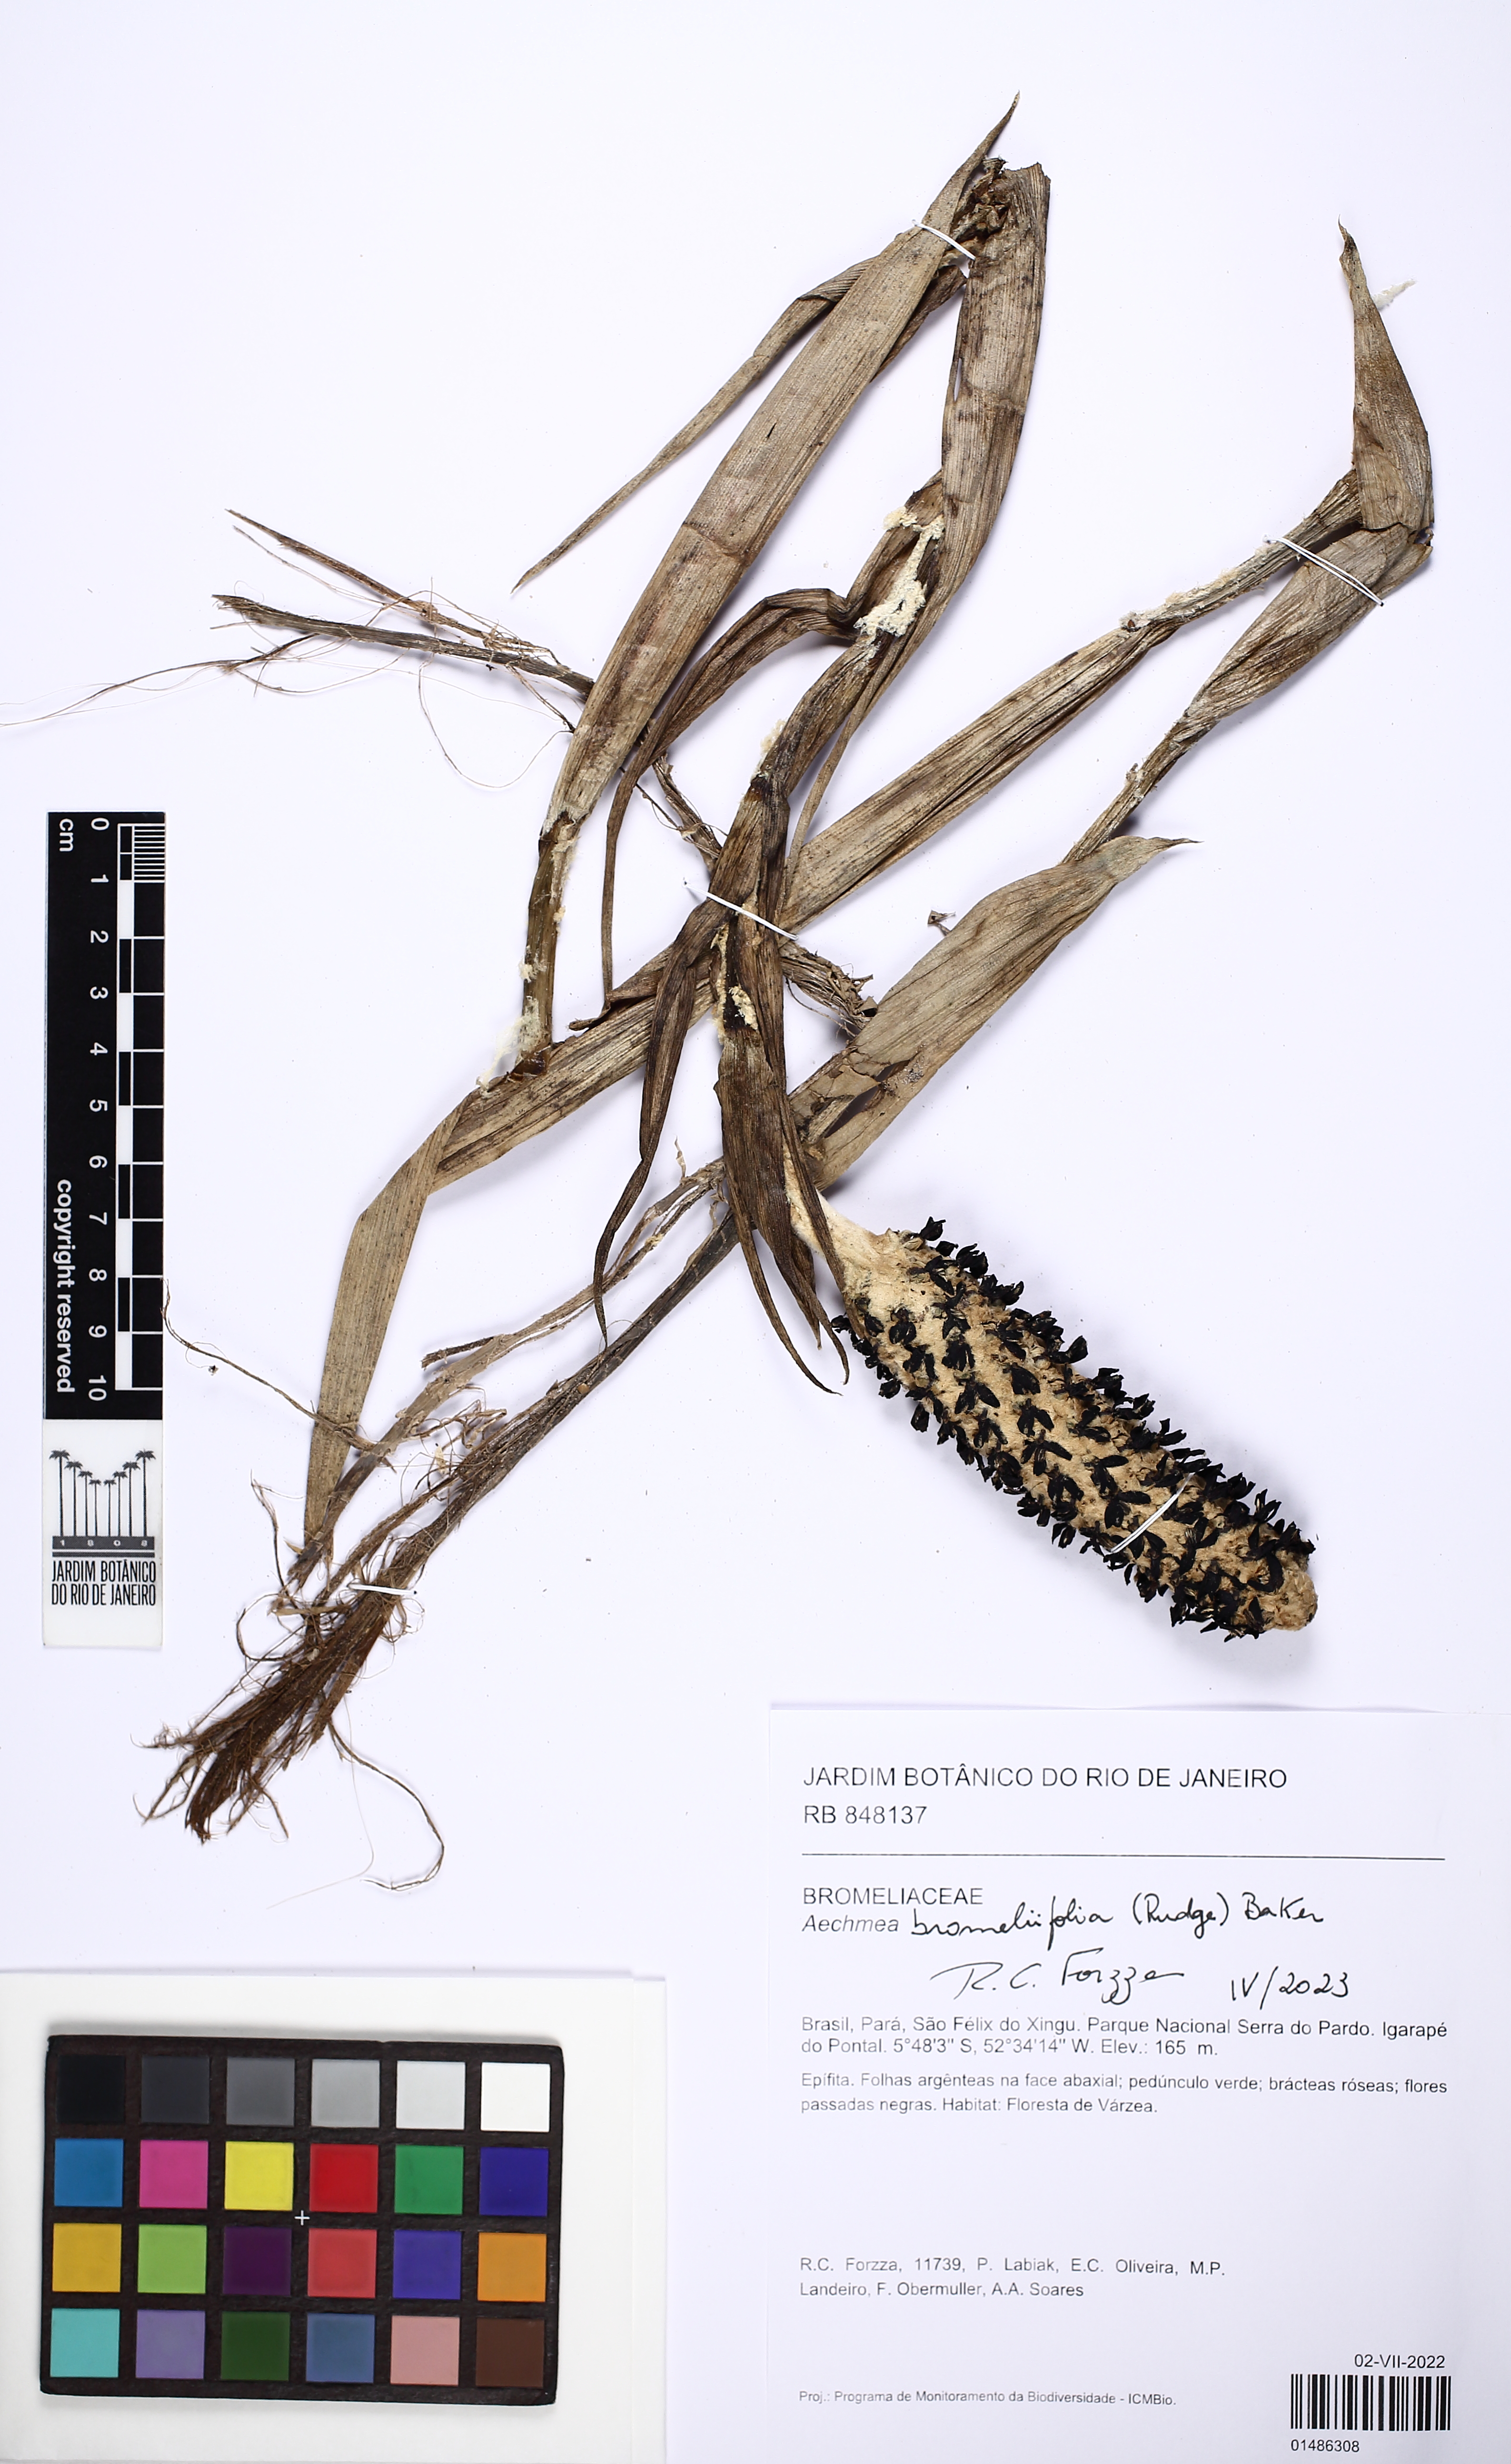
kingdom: Plantae
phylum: Tracheophyta
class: Liliopsida
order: Poales
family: Bromeliaceae
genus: Aechmea
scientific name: Aechmea bromeliifolia
